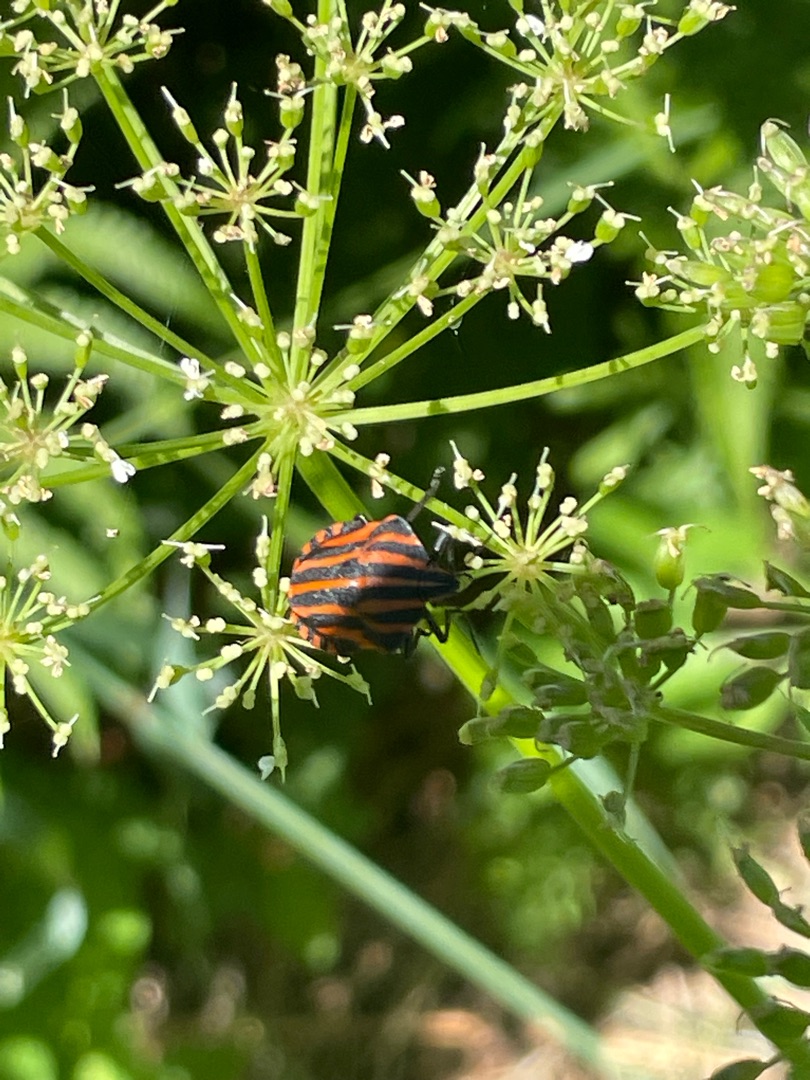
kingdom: Animalia
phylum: Arthropoda
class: Insecta
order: Hemiptera
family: Pentatomidae
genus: Graphosoma
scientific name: Graphosoma italicum
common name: Stribetæge
